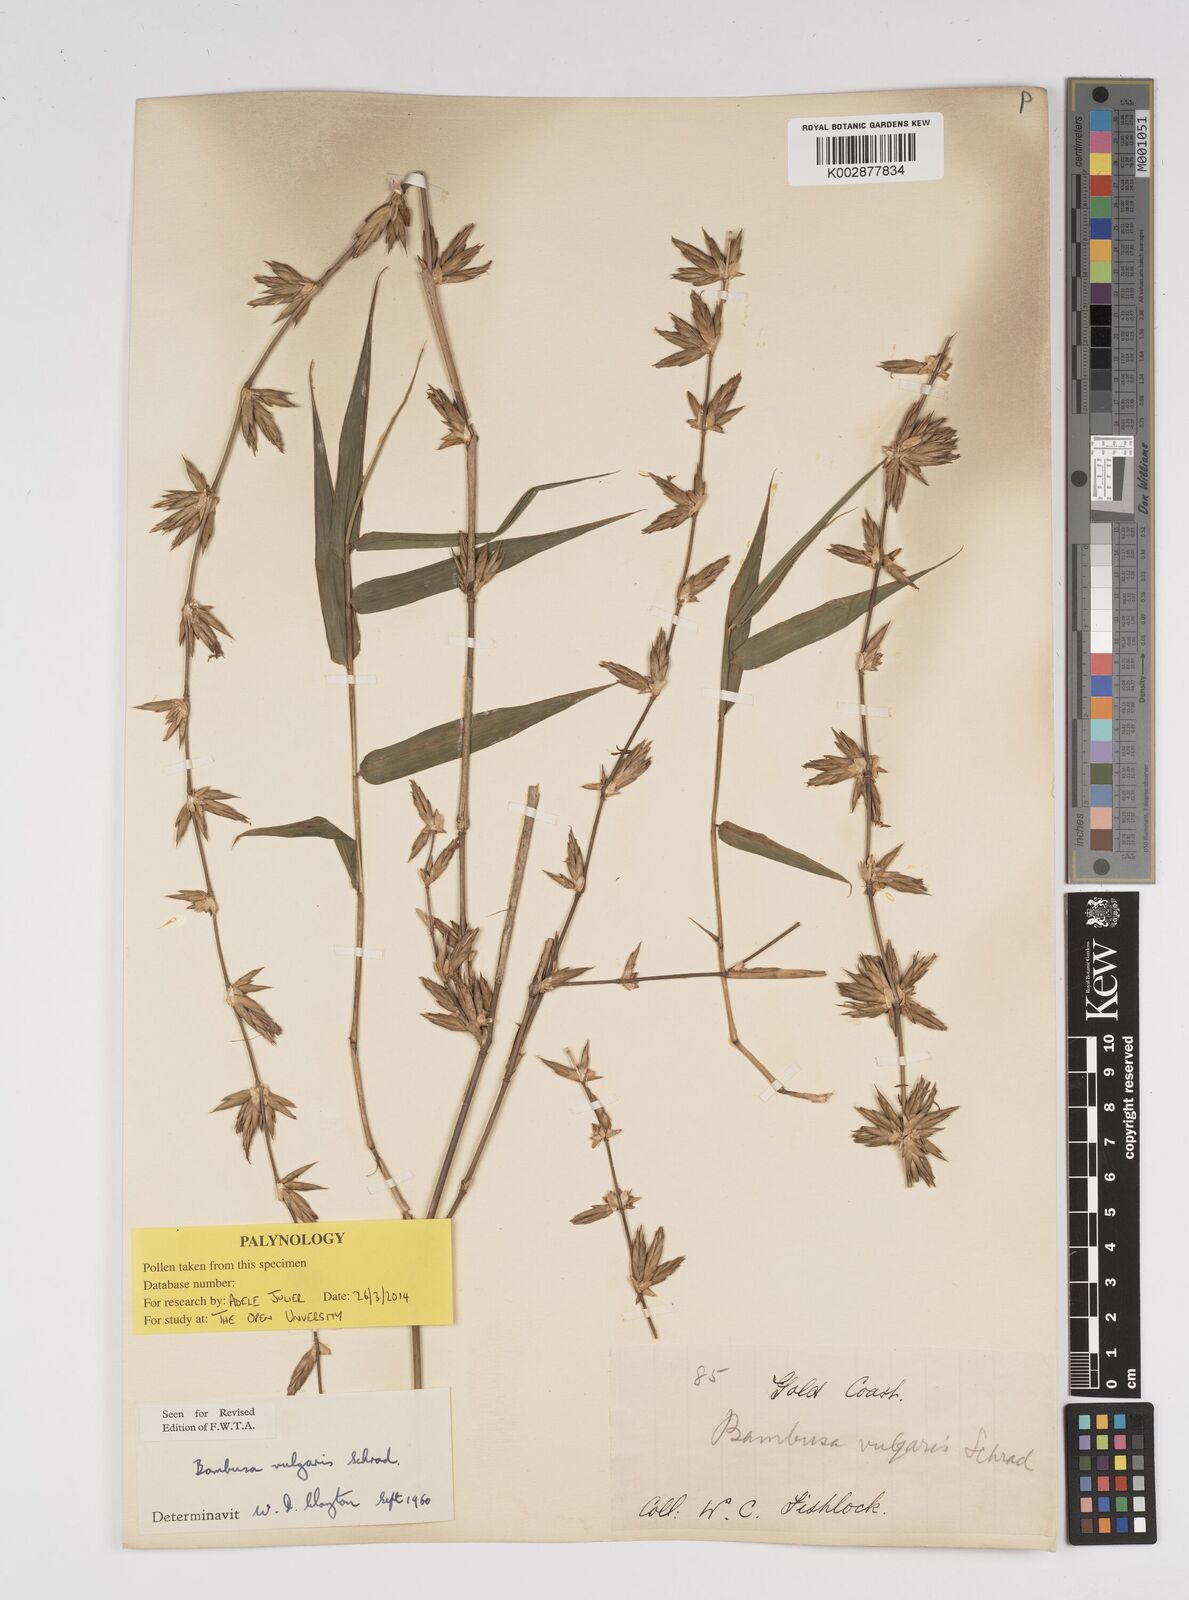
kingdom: Plantae
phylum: Tracheophyta
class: Liliopsida
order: Poales
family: Poaceae
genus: Bambusa
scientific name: Bambusa vulgaris
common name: Common bamboo
